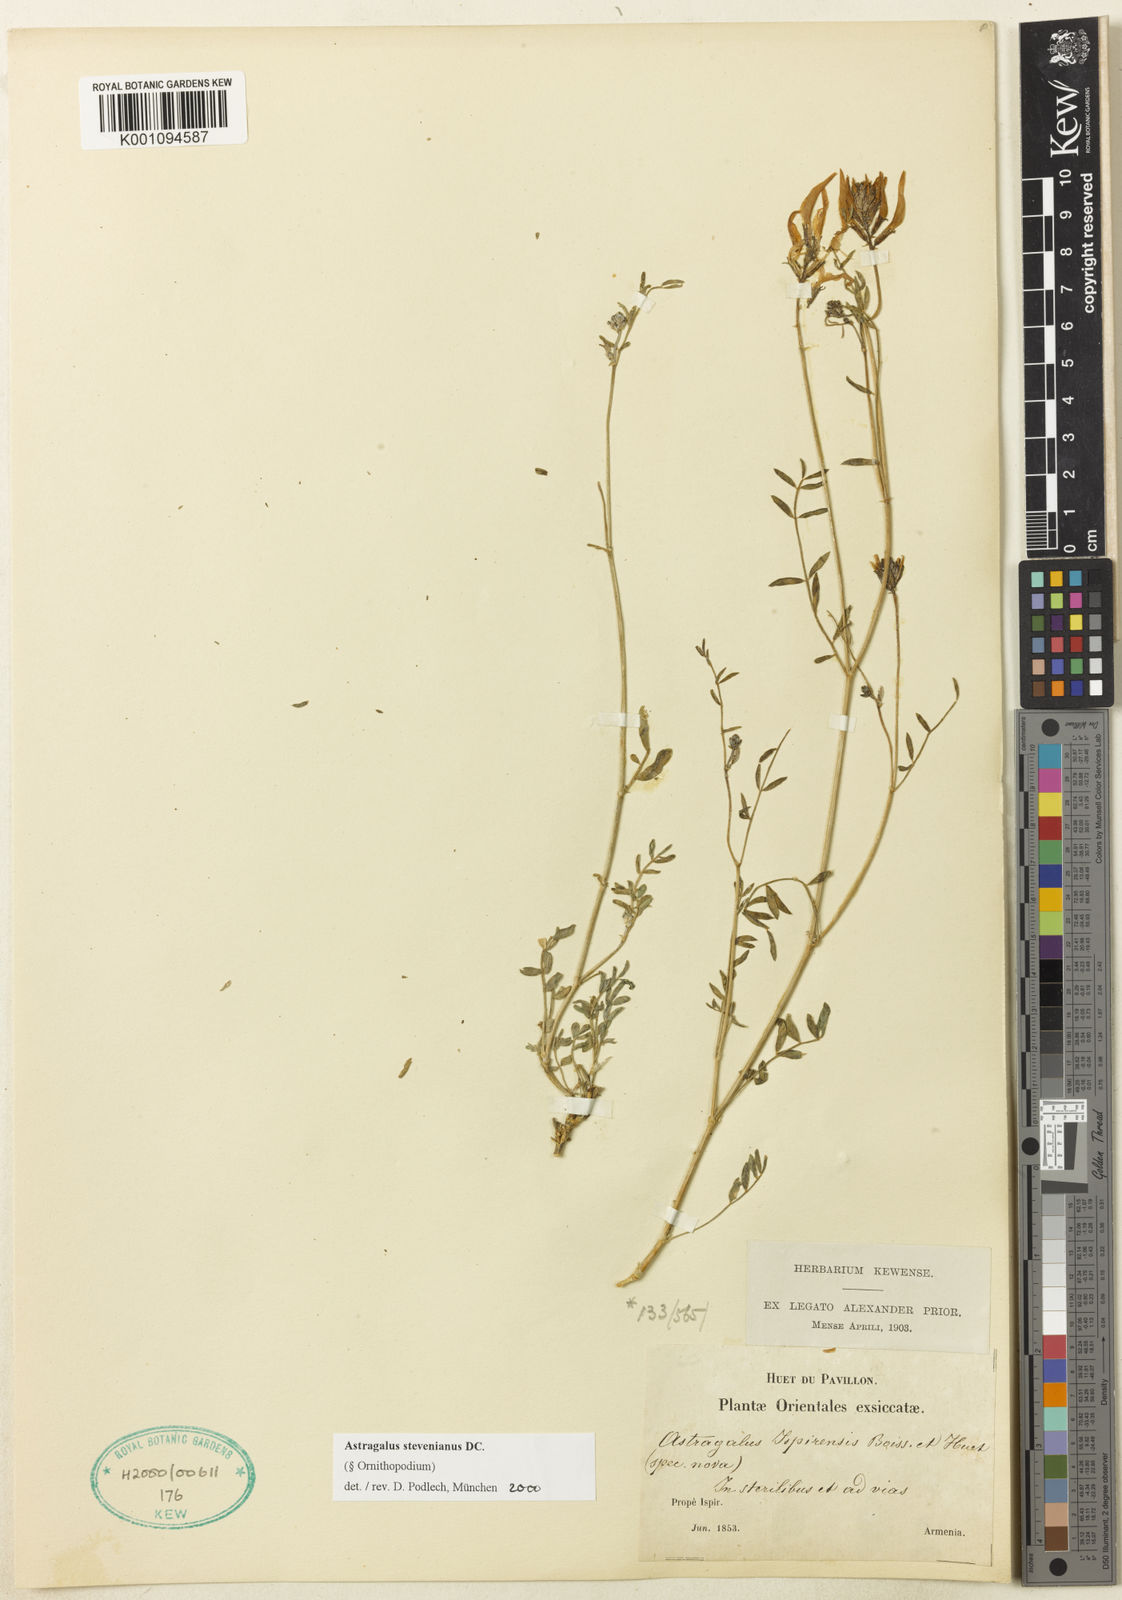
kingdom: Plantae
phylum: Tracheophyta
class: Magnoliopsida
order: Fabales
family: Fabaceae
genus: Astragalus
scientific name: Astragalus
